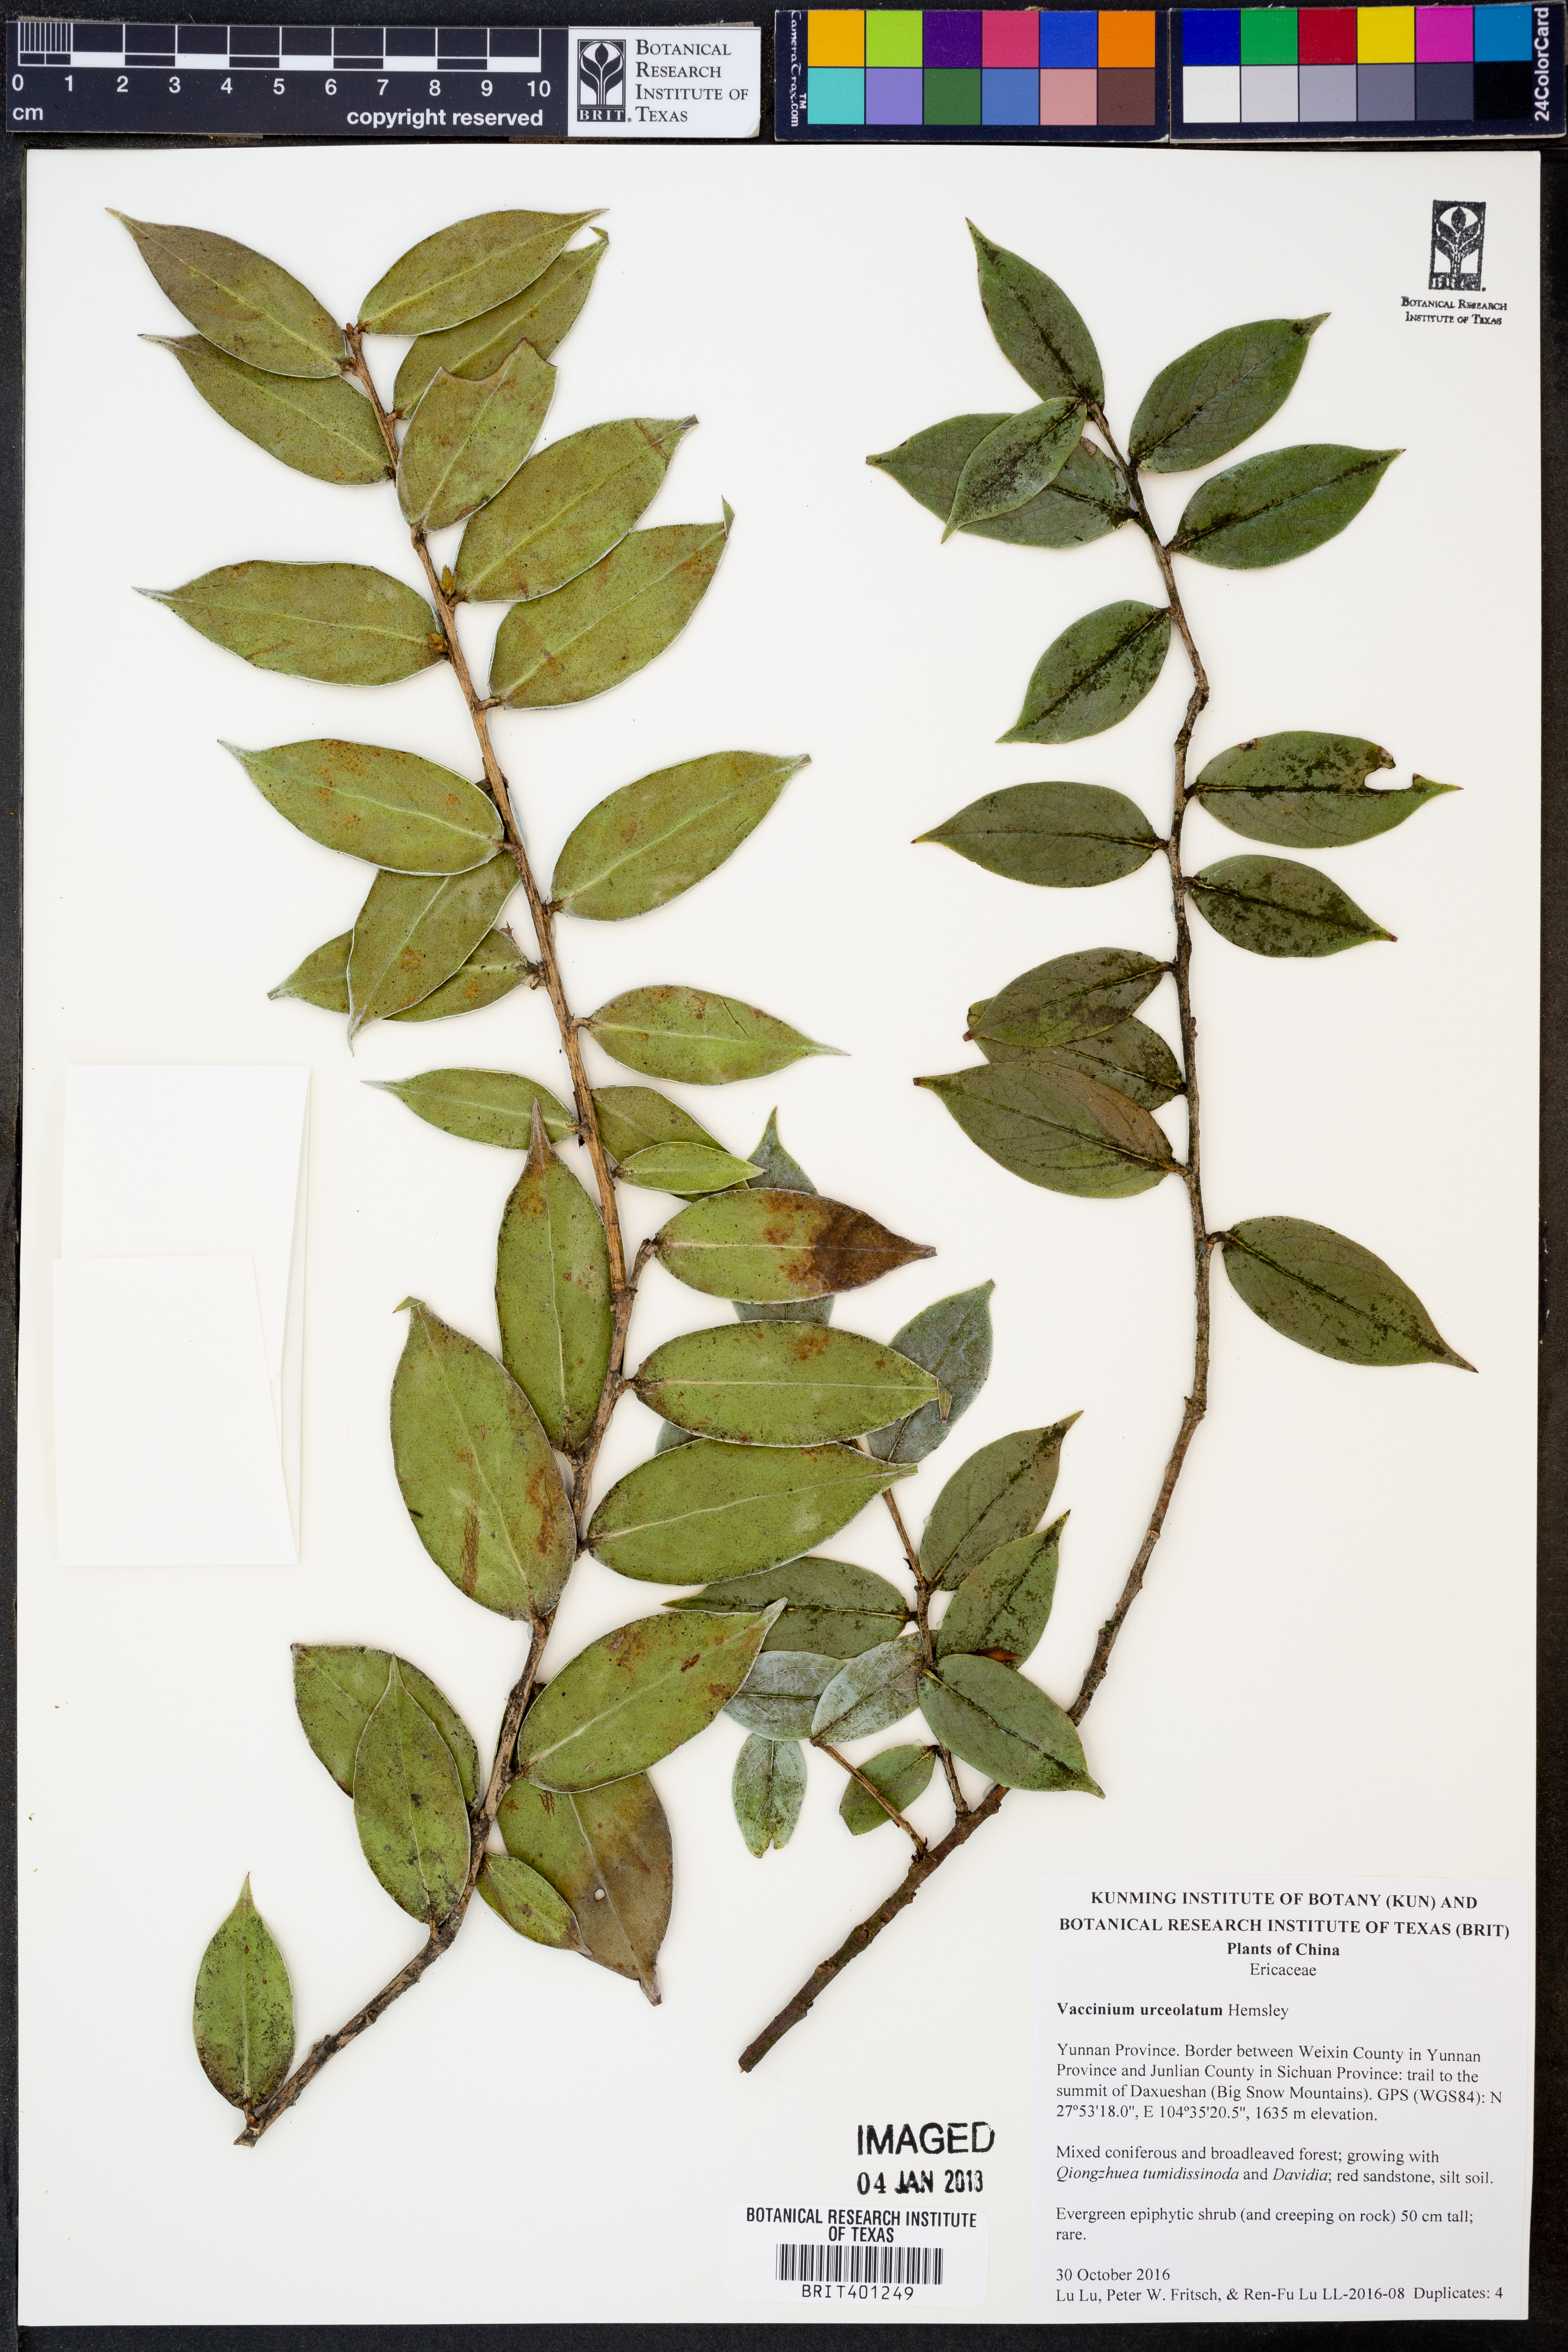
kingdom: Plantae
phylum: Tracheophyta
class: Magnoliopsida
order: Ericales
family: Ericaceae
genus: Vaccinium
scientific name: Vaccinium urceolatum
